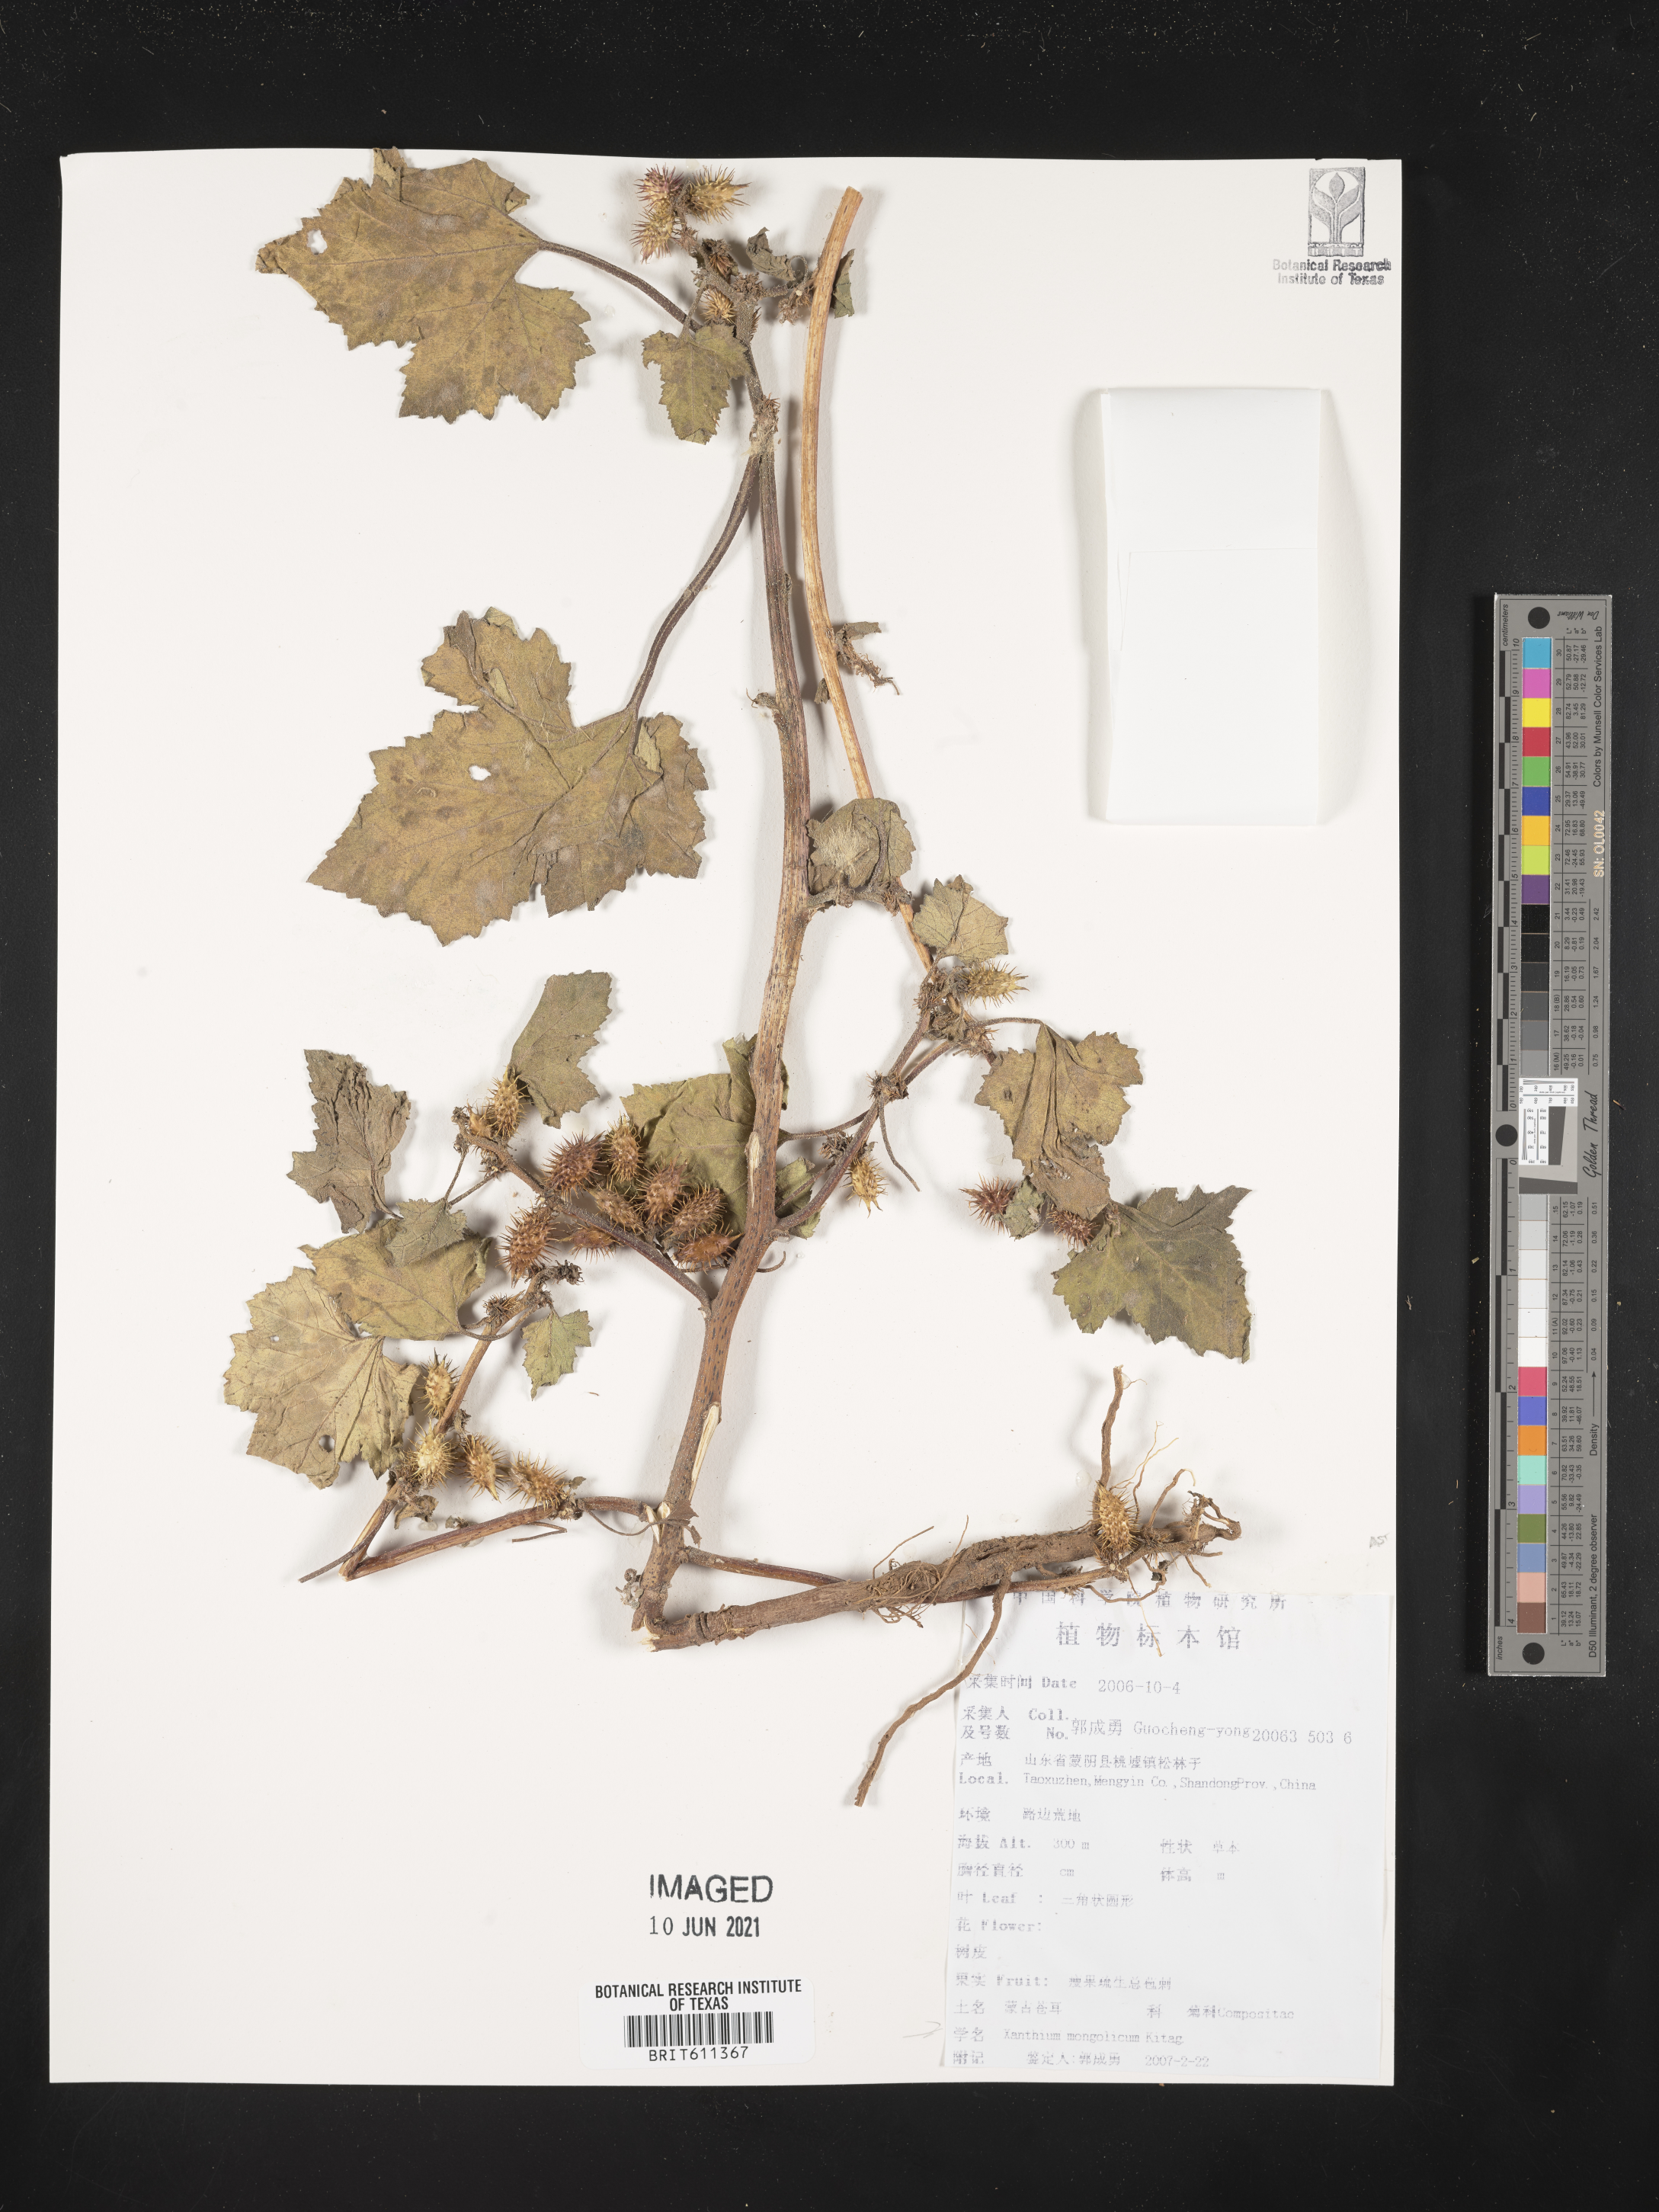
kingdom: Plantae
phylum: Tracheophyta
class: Magnoliopsida
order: Asterales
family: Asteraceae
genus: Xanthium
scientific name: Xanthium strumarium
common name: Rough cocklebur
